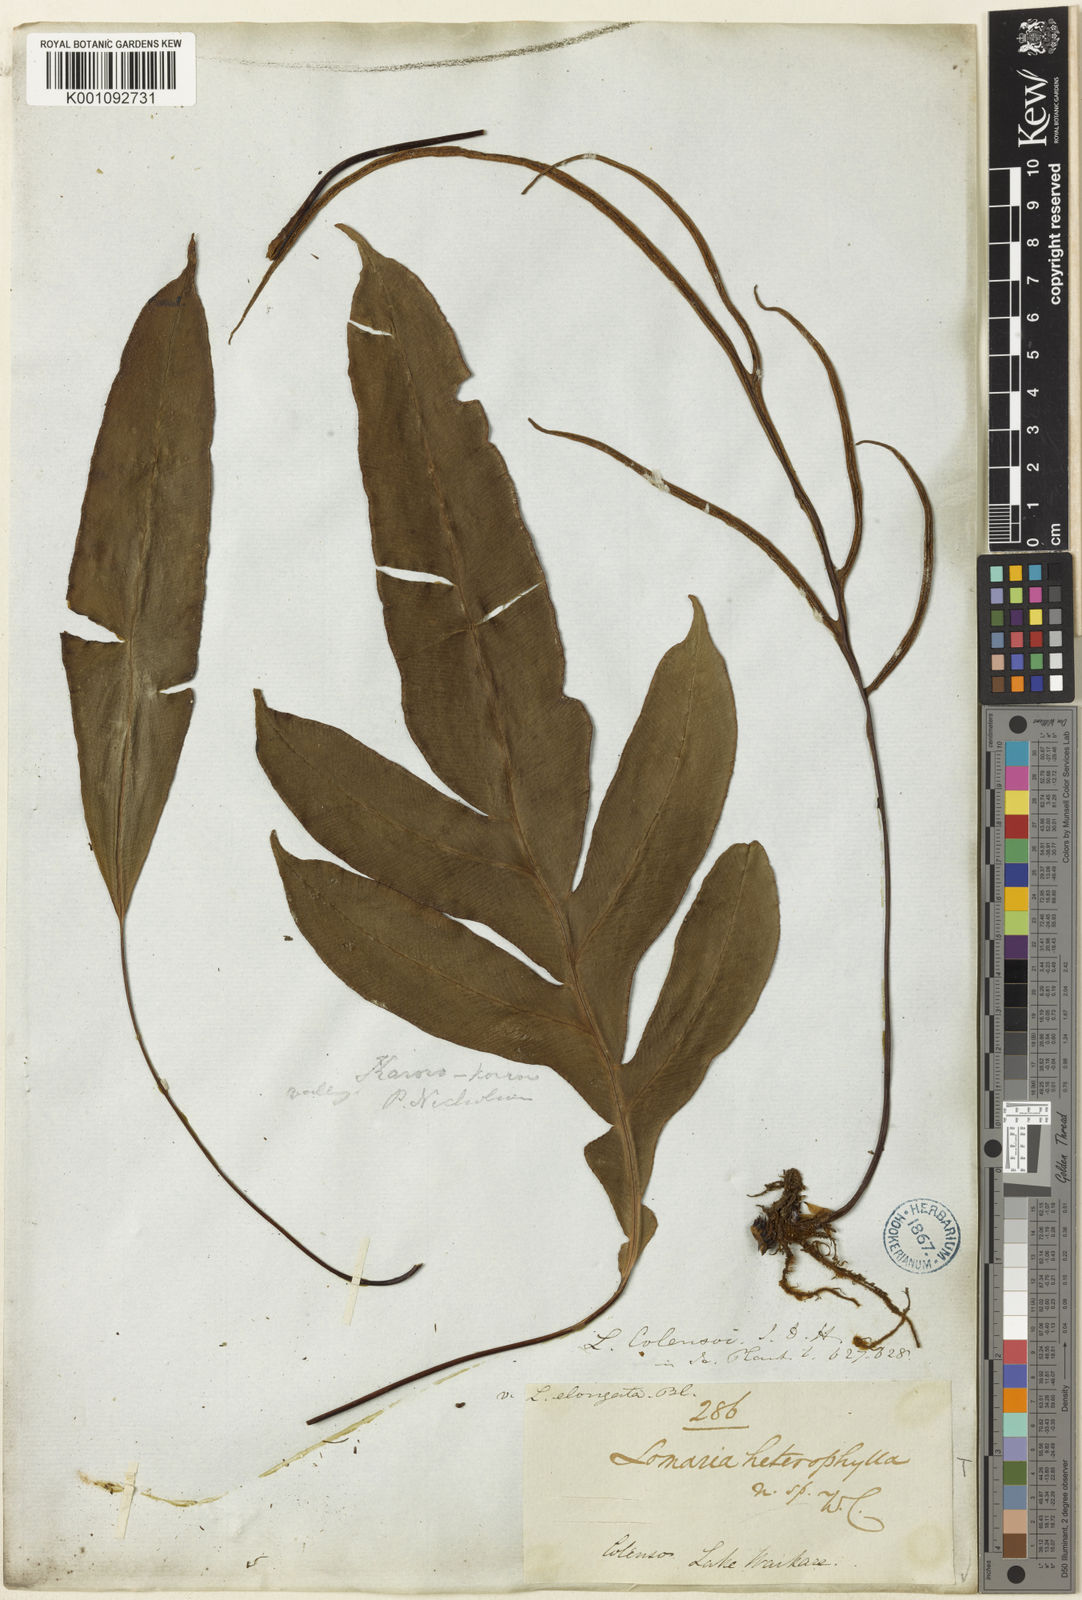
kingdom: Plantae
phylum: Tracheophyta
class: Polypodiopsida
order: Polypodiales
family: Blechnaceae
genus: Austroblechnum
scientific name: Austroblechnum colensoi
